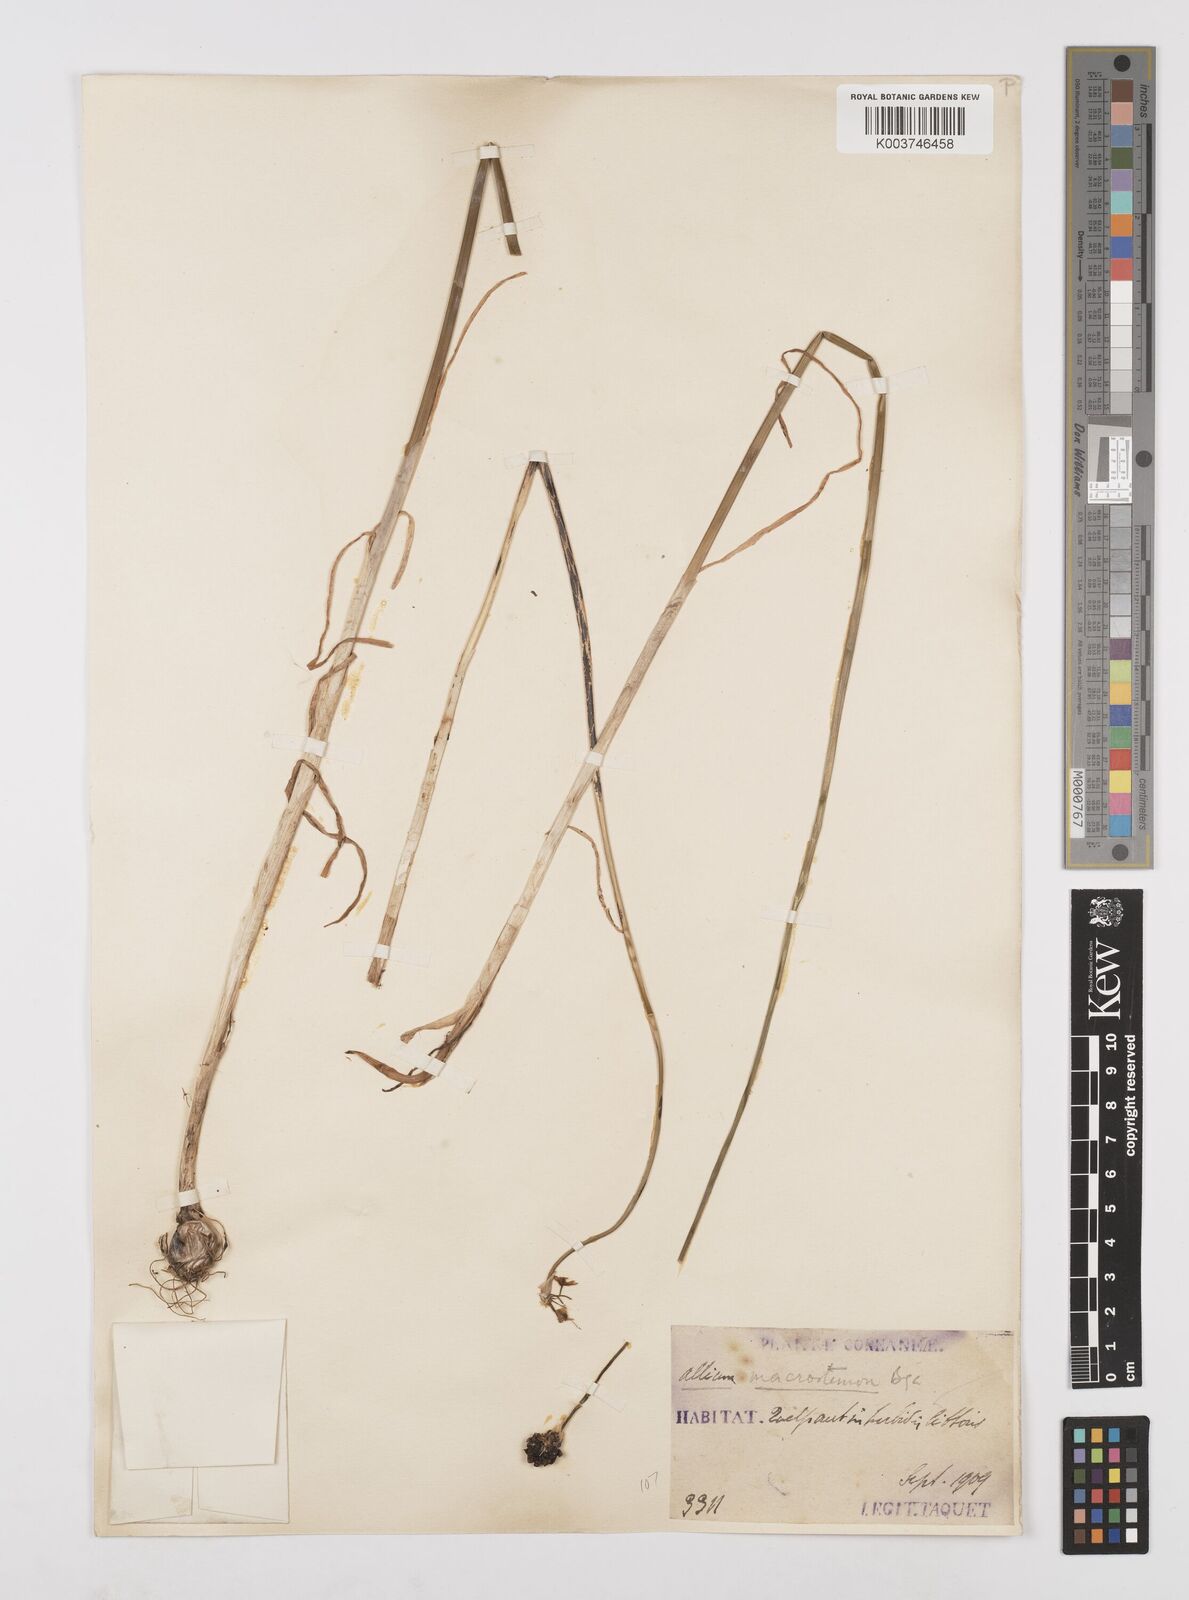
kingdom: Plantae
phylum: Tracheophyta
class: Liliopsida
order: Asparagales
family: Amaryllidaceae
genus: Allium
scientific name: Allium macrostemon
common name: Chinese garlic
